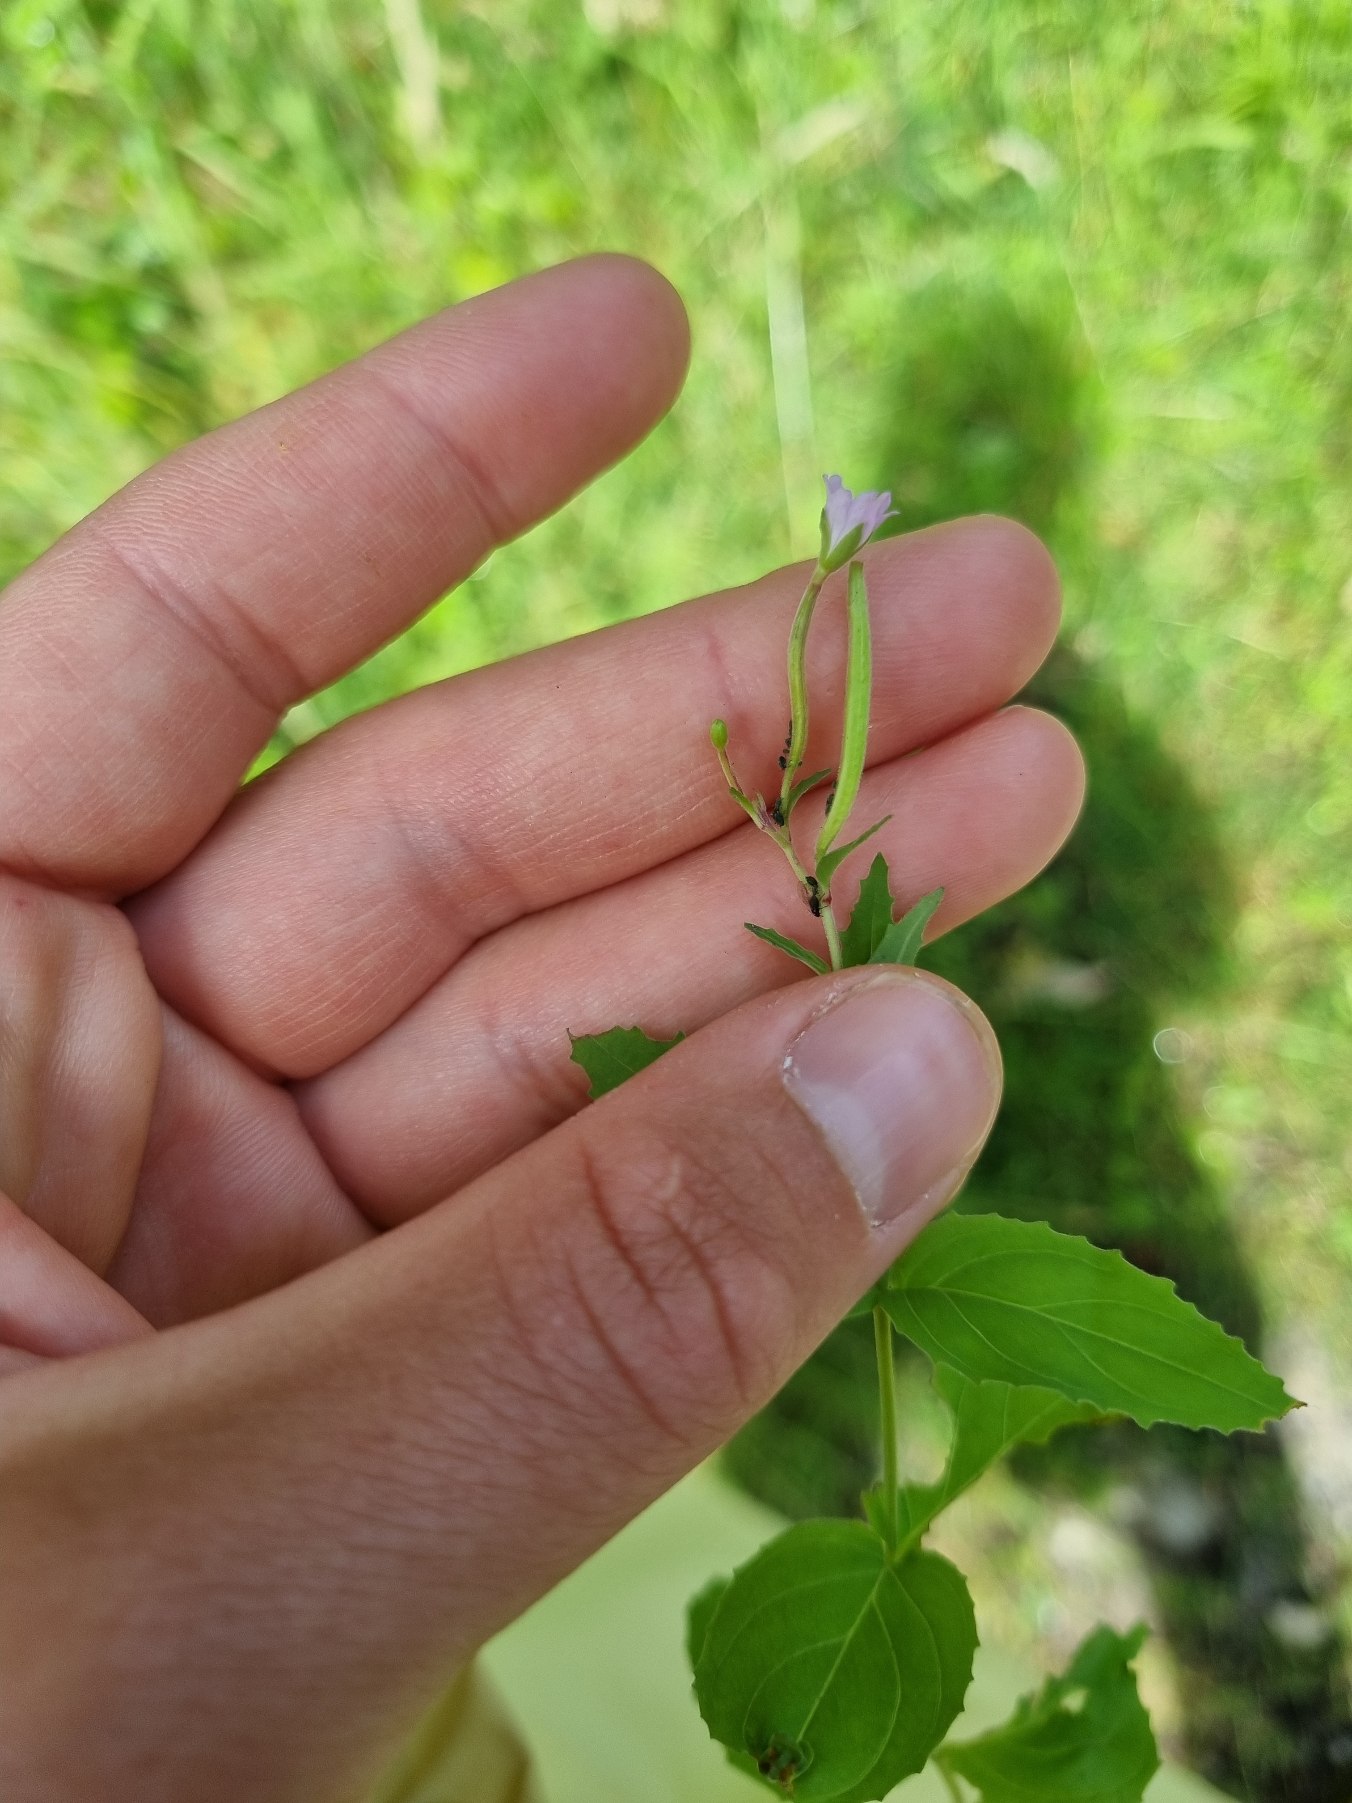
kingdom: Plantae
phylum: Tracheophyta
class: Magnoliopsida
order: Myrtales
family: Onagraceae
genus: Epilobium
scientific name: Epilobium montanum
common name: Glat dueurt
